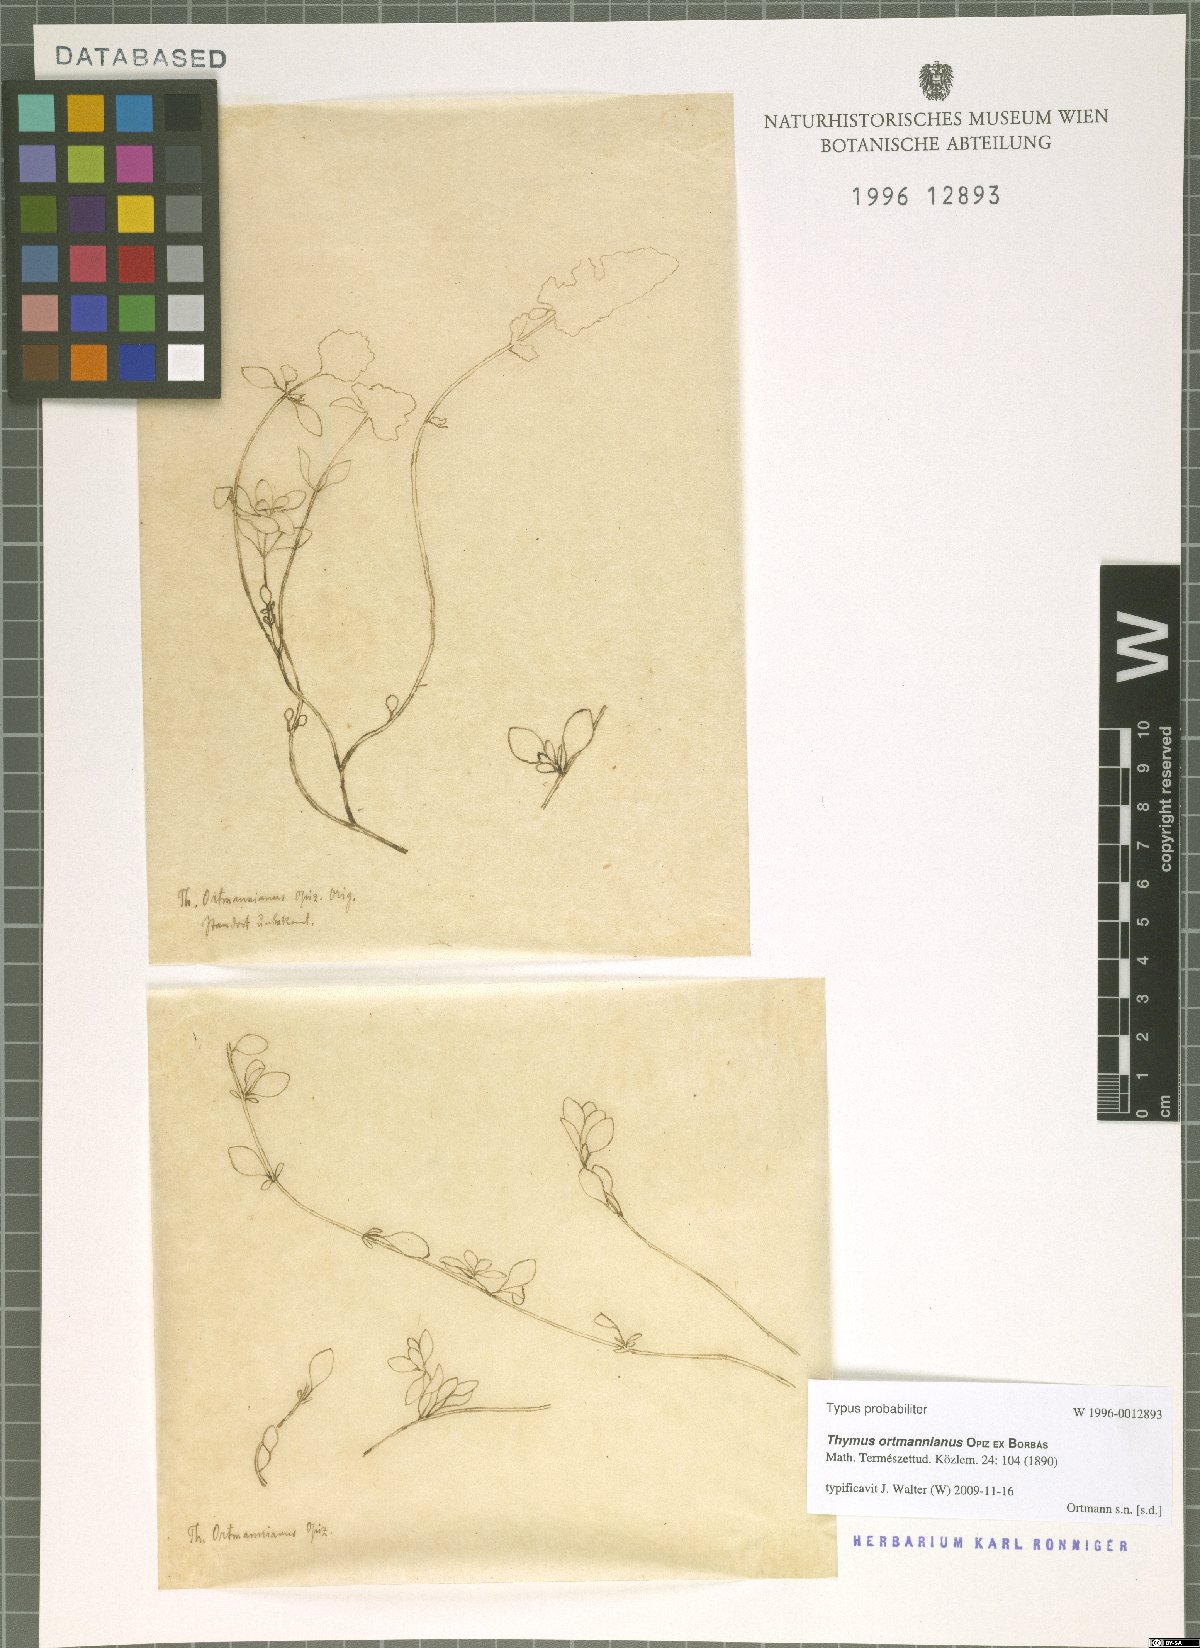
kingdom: Plantae
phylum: Tracheophyta
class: Magnoliopsida
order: Lamiales
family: Lamiaceae
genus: Thymus
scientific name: Thymus oenipontanus
